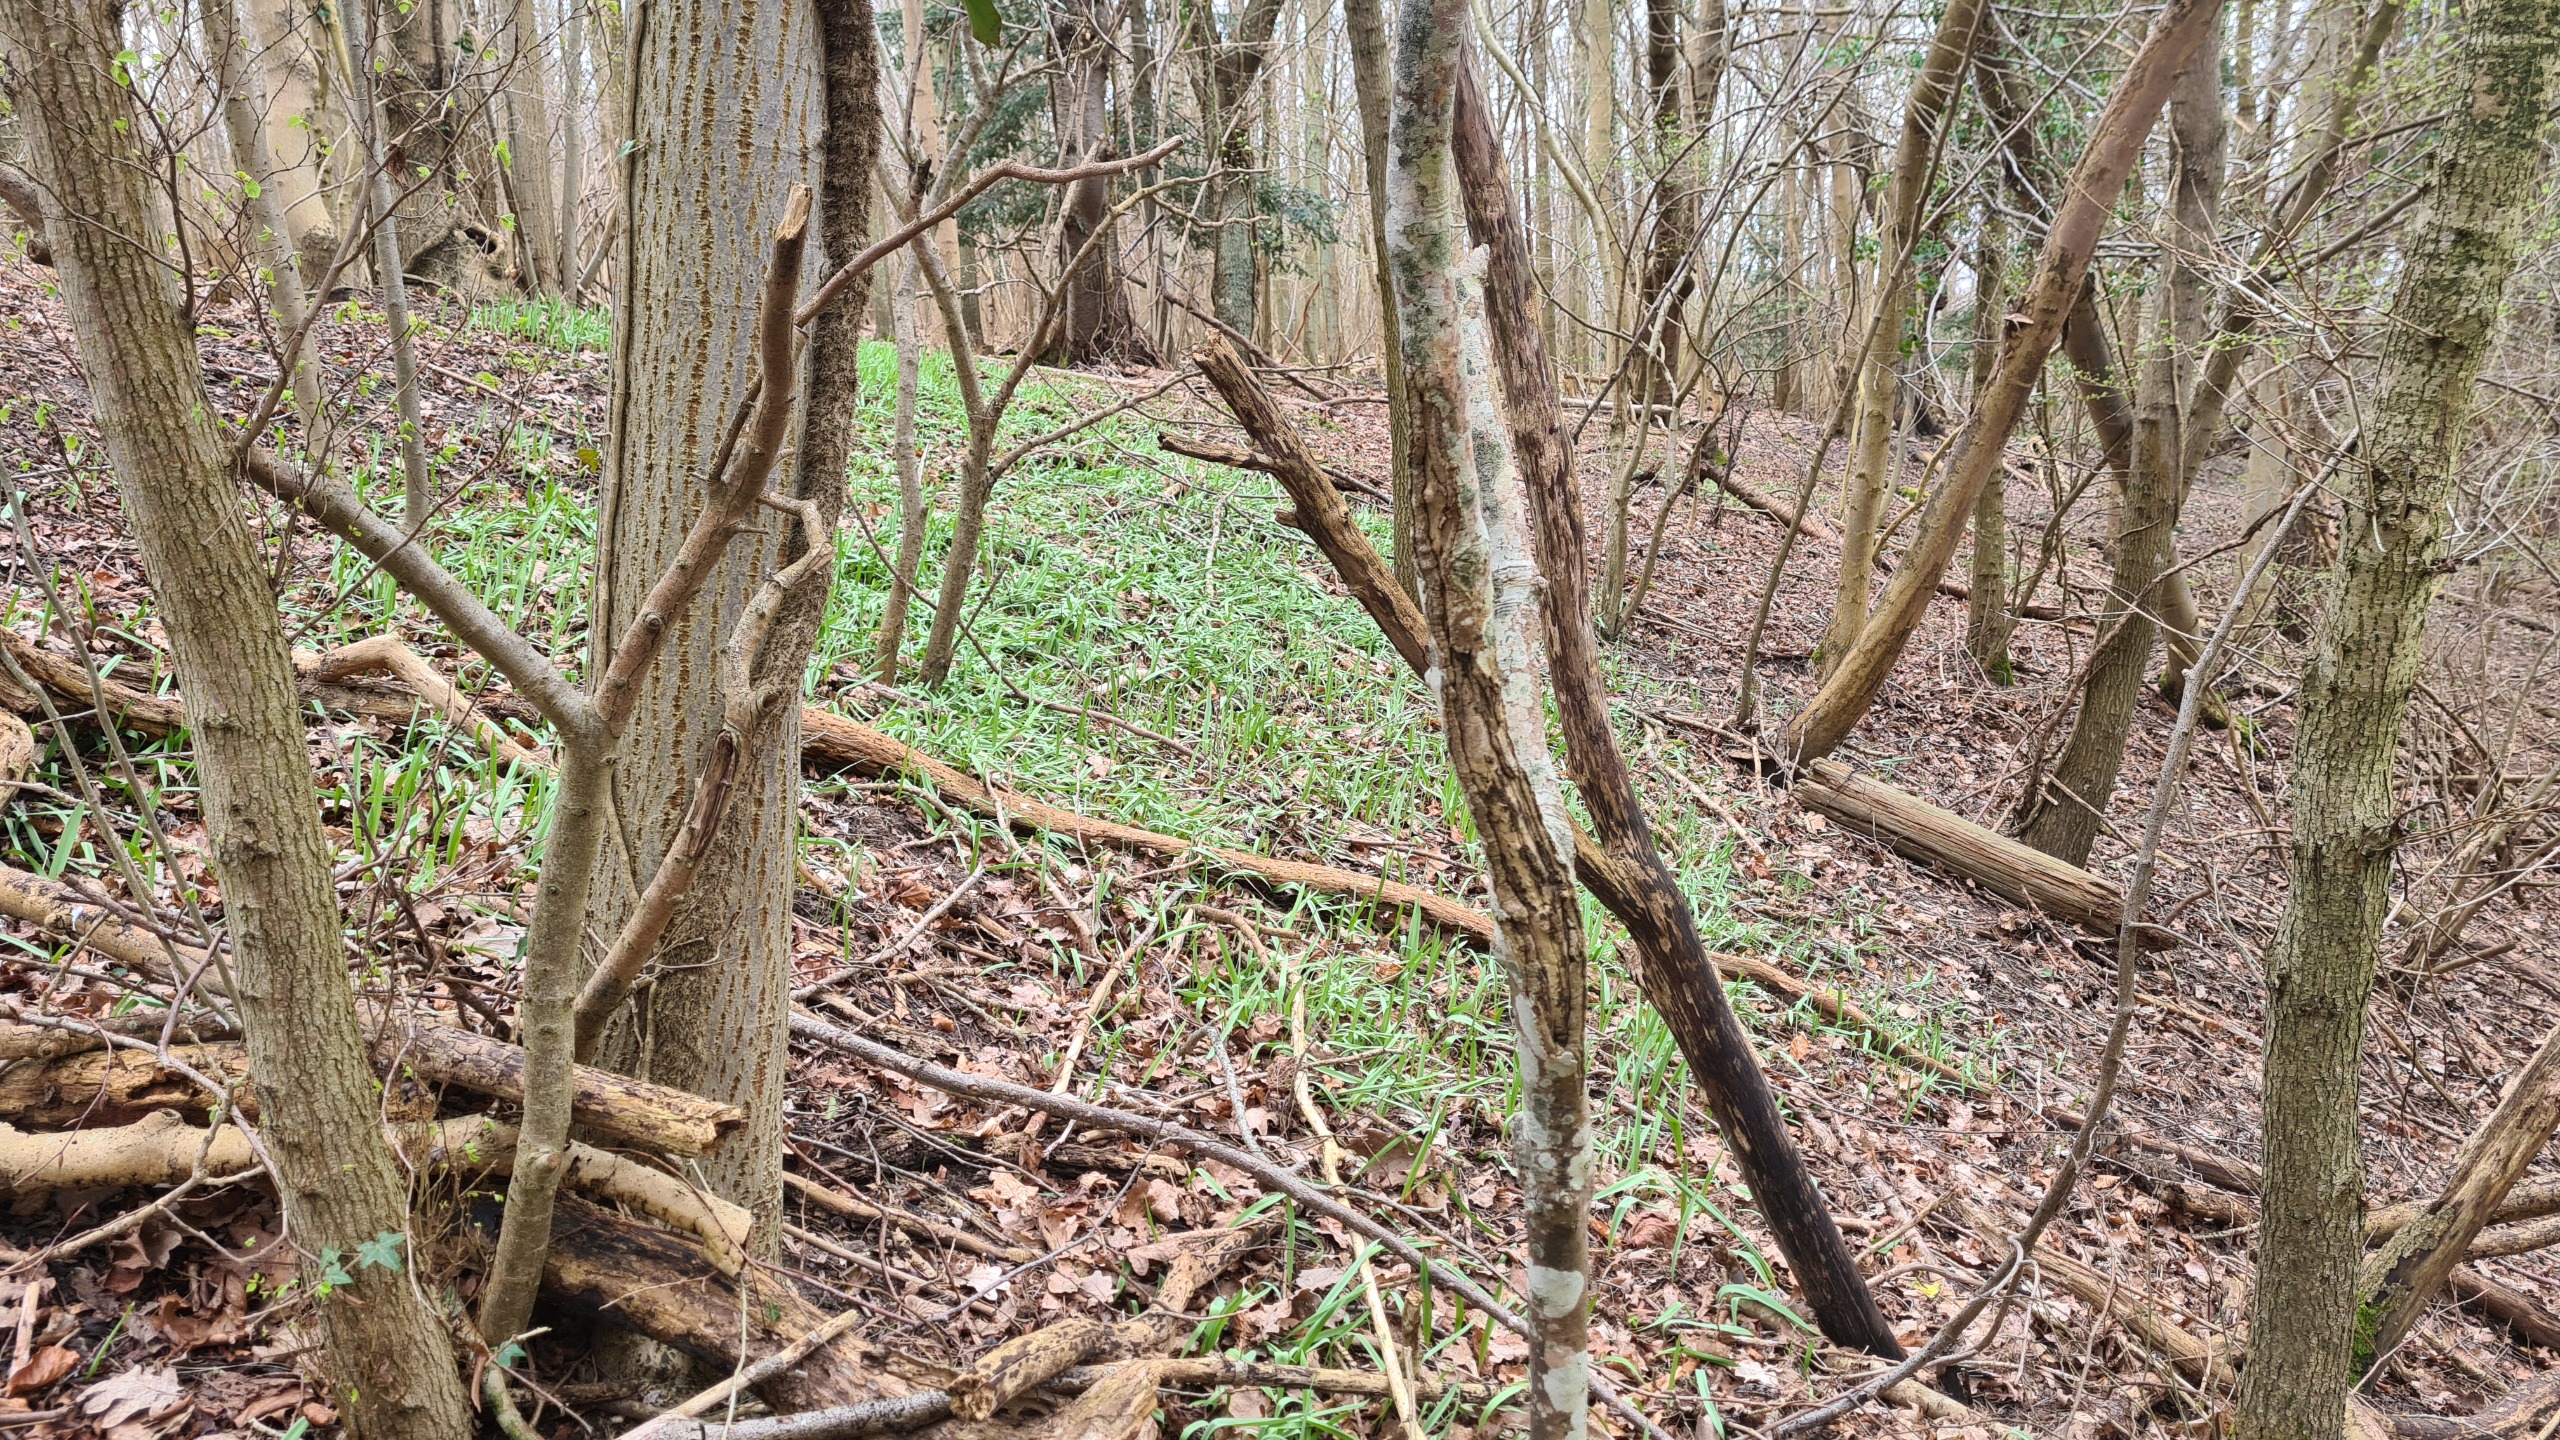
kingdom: Plantae
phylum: Tracheophyta
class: Liliopsida
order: Liliales
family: Liliaceae
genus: Tulipa
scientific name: Tulipa sylvestris
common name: Vild tulipan
